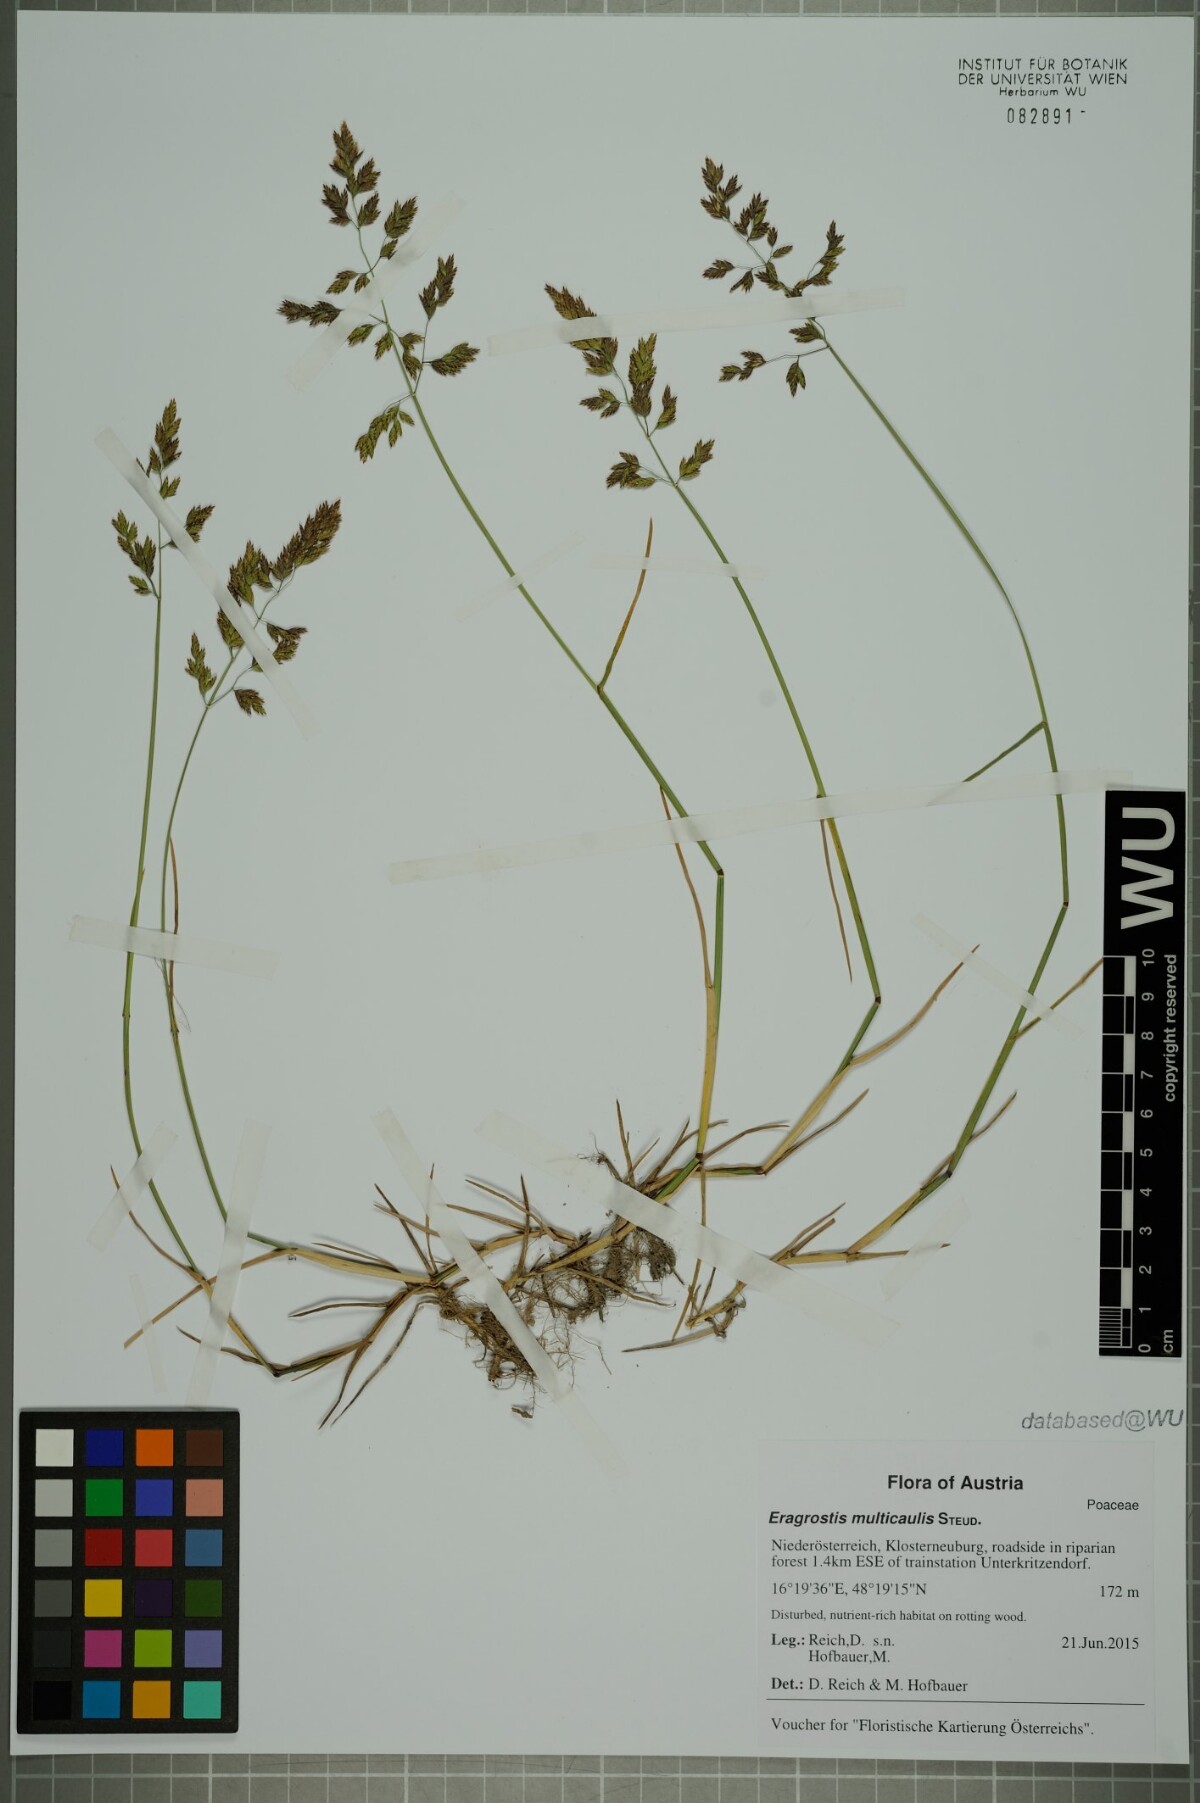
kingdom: Plantae
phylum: Tracheophyta
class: Liliopsida
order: Poales
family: Poaceae
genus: Puccinellia
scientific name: Puccinellia distans
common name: Weeping alkaligrass
